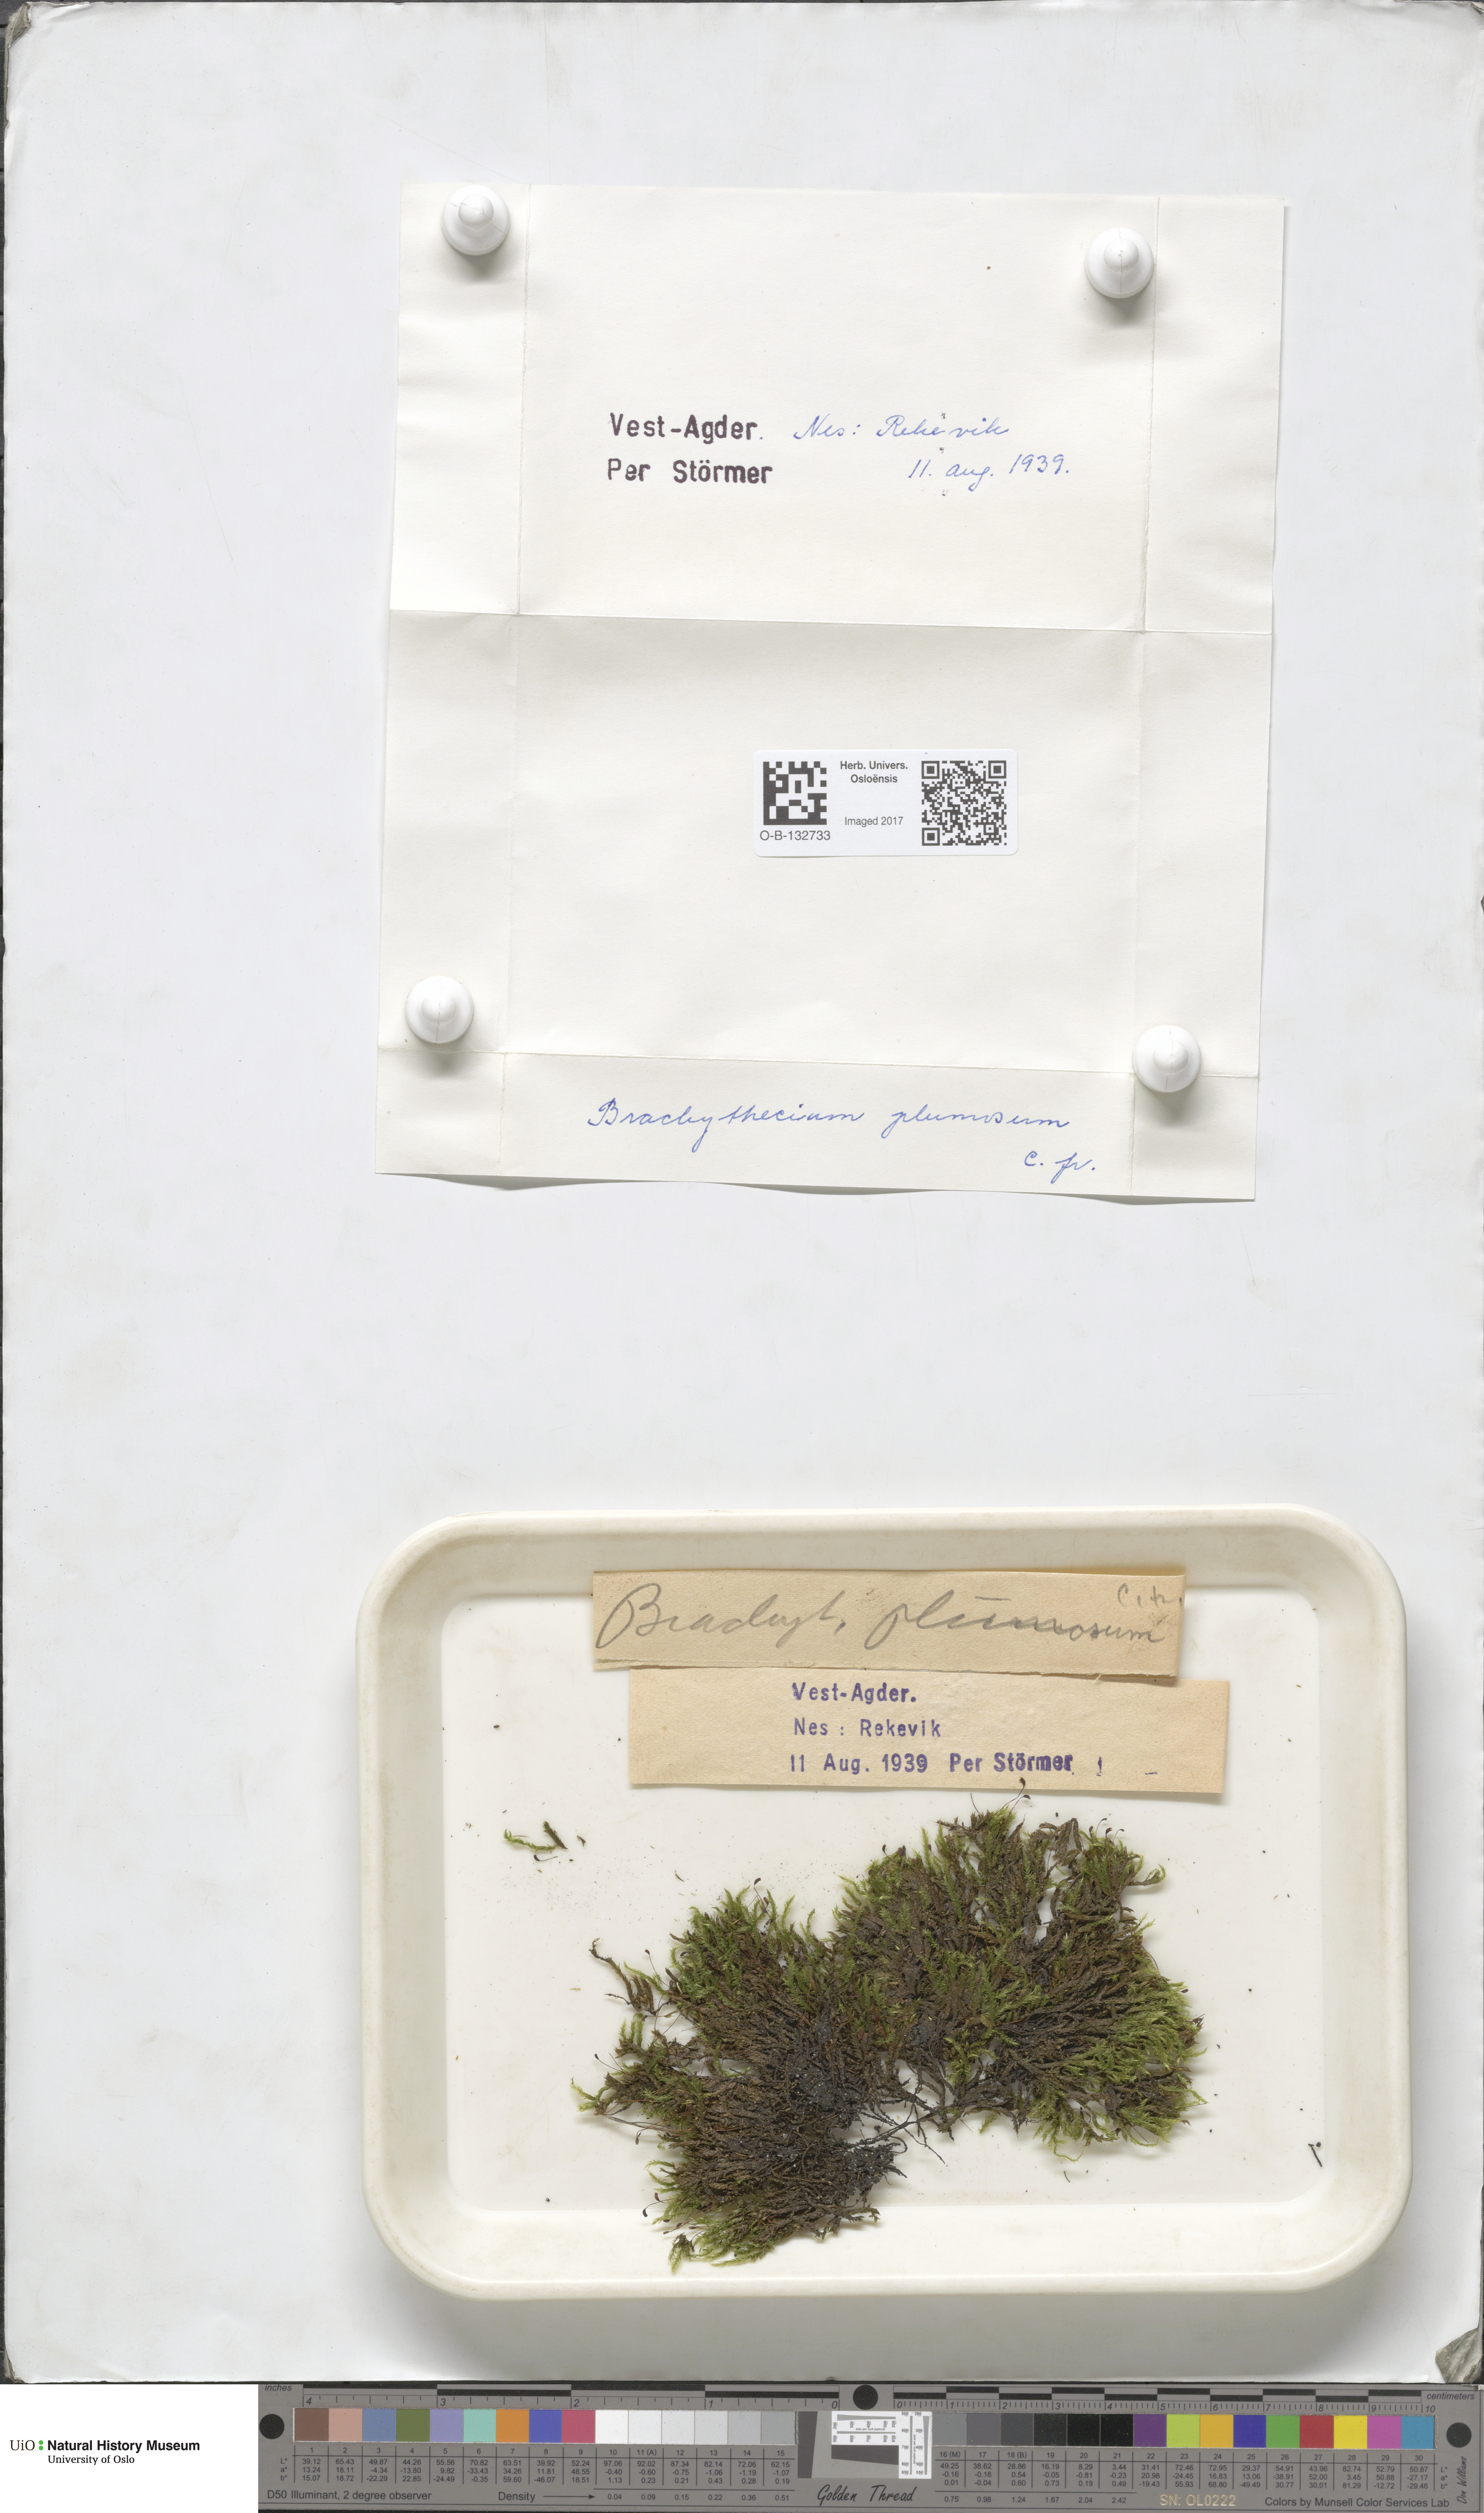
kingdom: Plantae
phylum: Bryophyta
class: Bryopsida
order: Hypnales
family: Brachytheciaceae
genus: Sciuro-hypnum
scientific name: Sciuro-hypnum plumosum
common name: Rusty feather-moss
